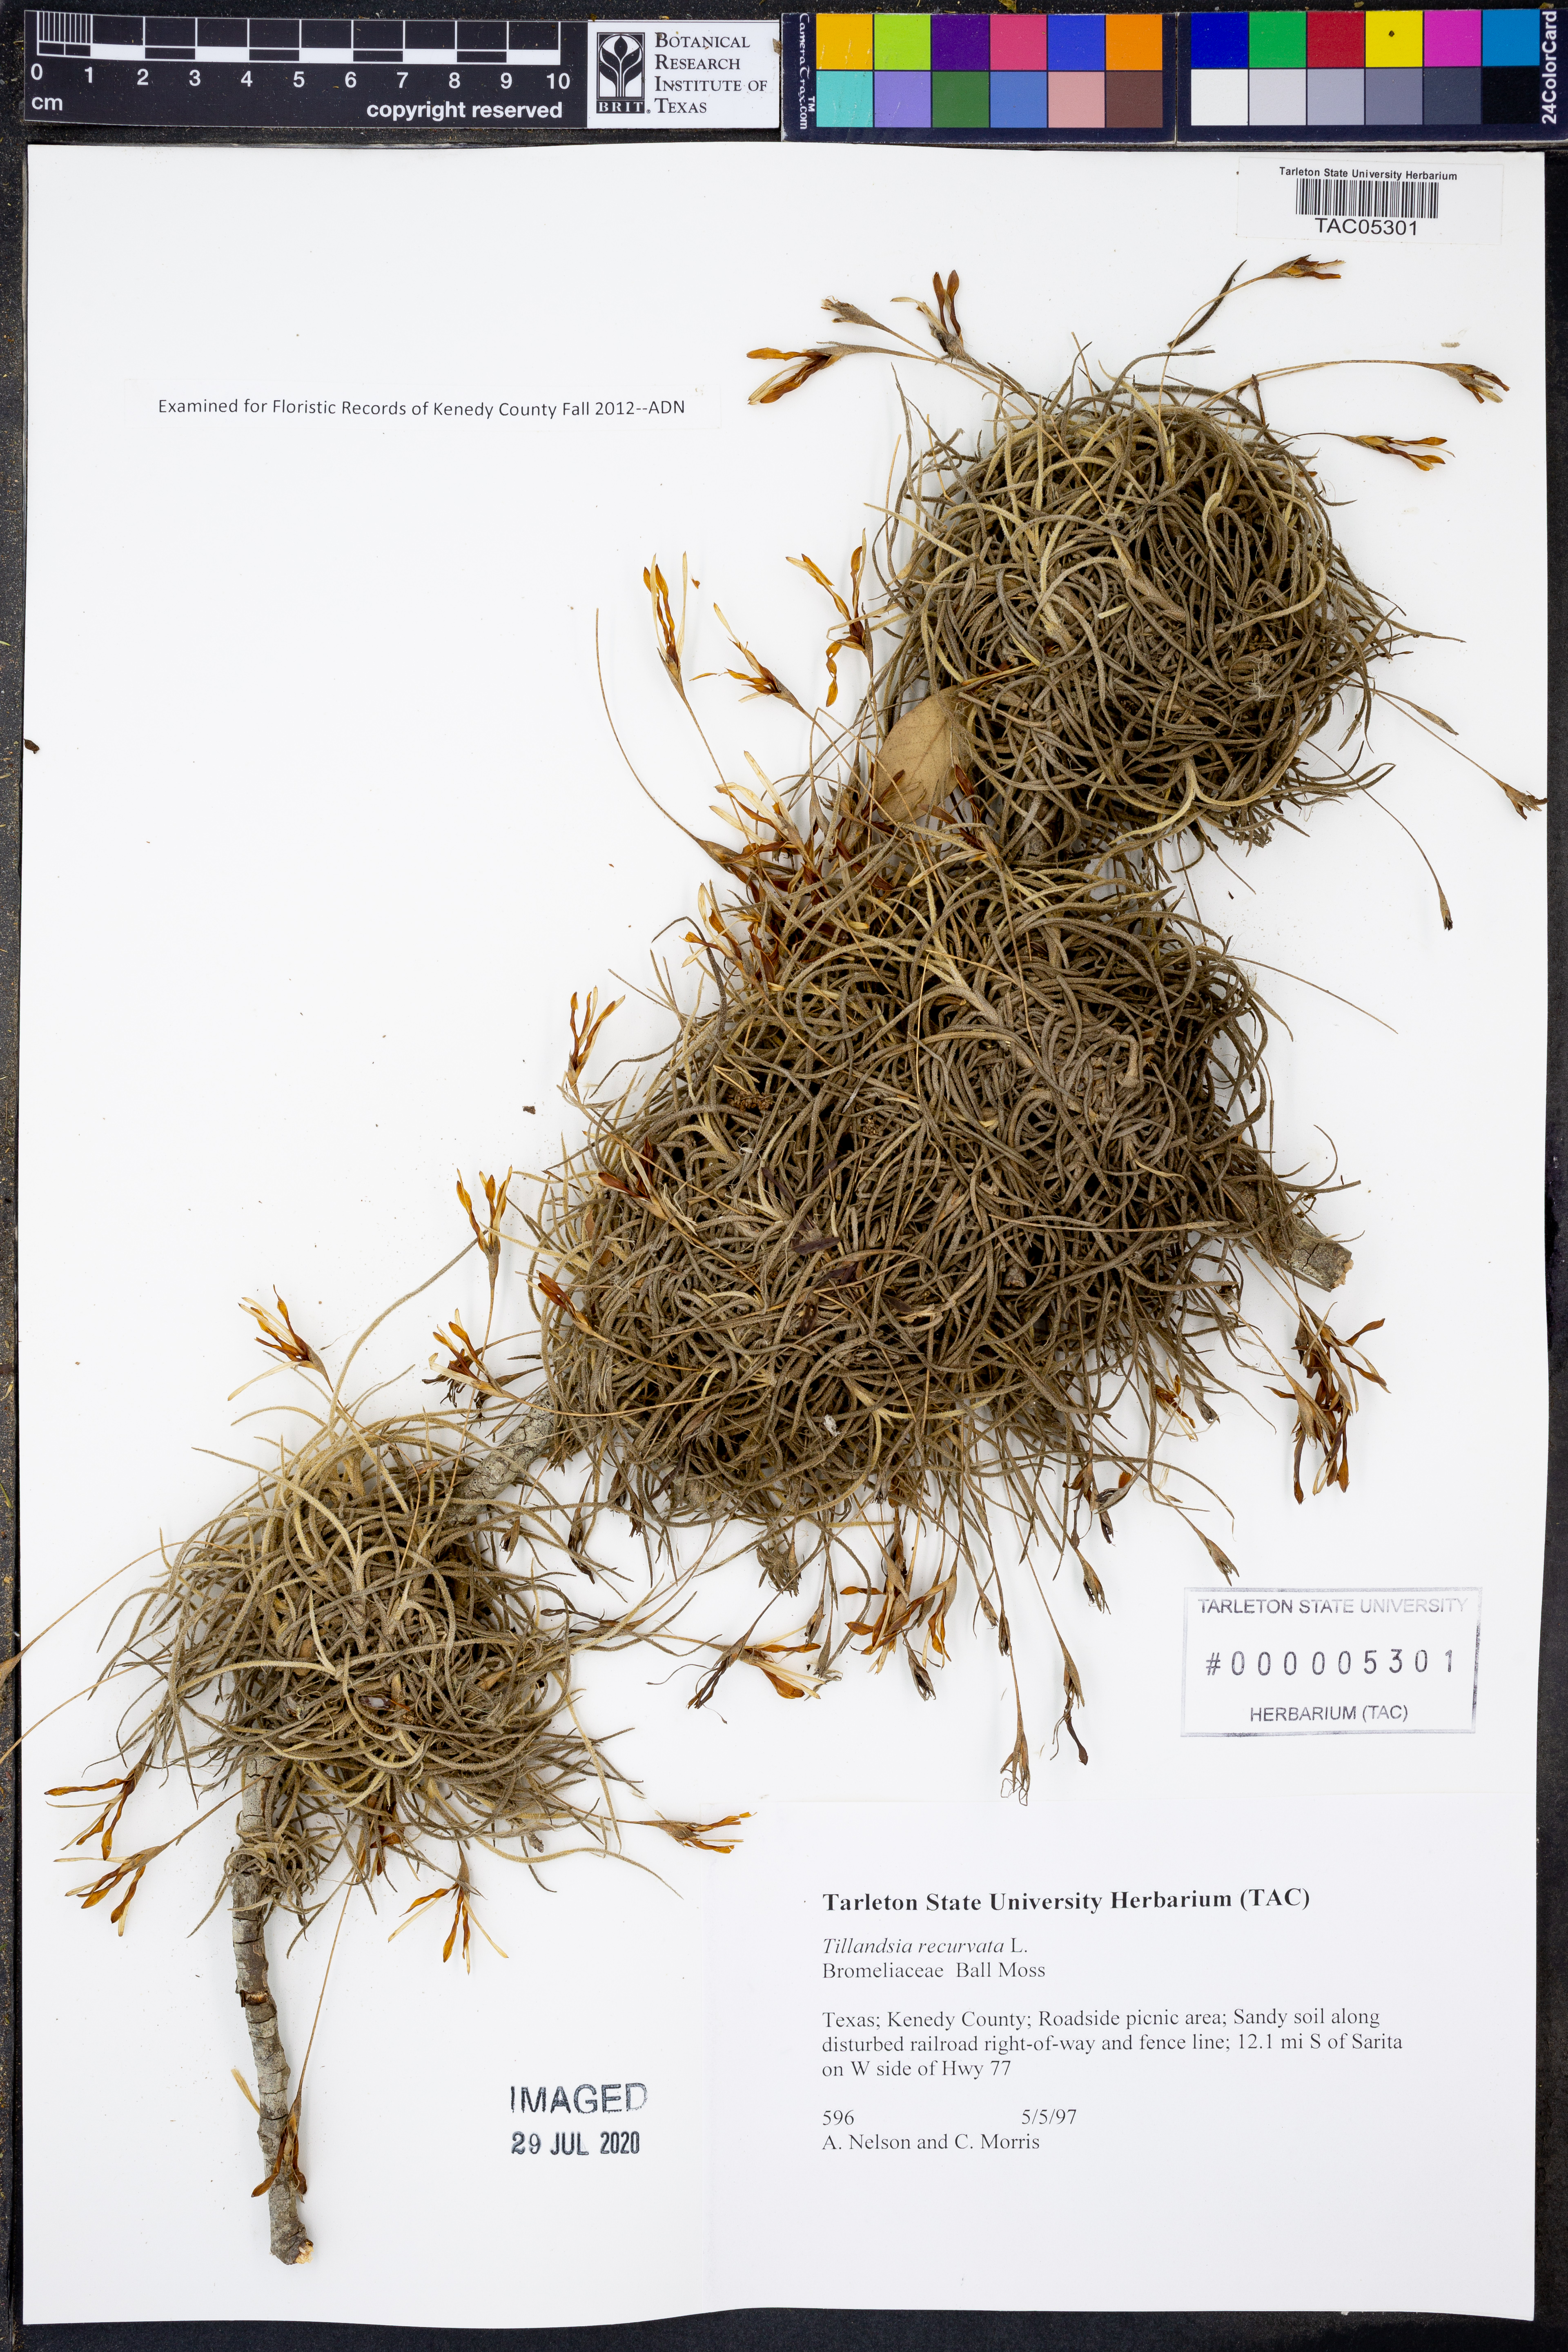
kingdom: Plantae
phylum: Tracheophyta
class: Liliopsida
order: Poales
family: Bromeliaceae
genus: Tillandsia
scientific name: Tillandsia recurvata
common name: Small ballmoss
